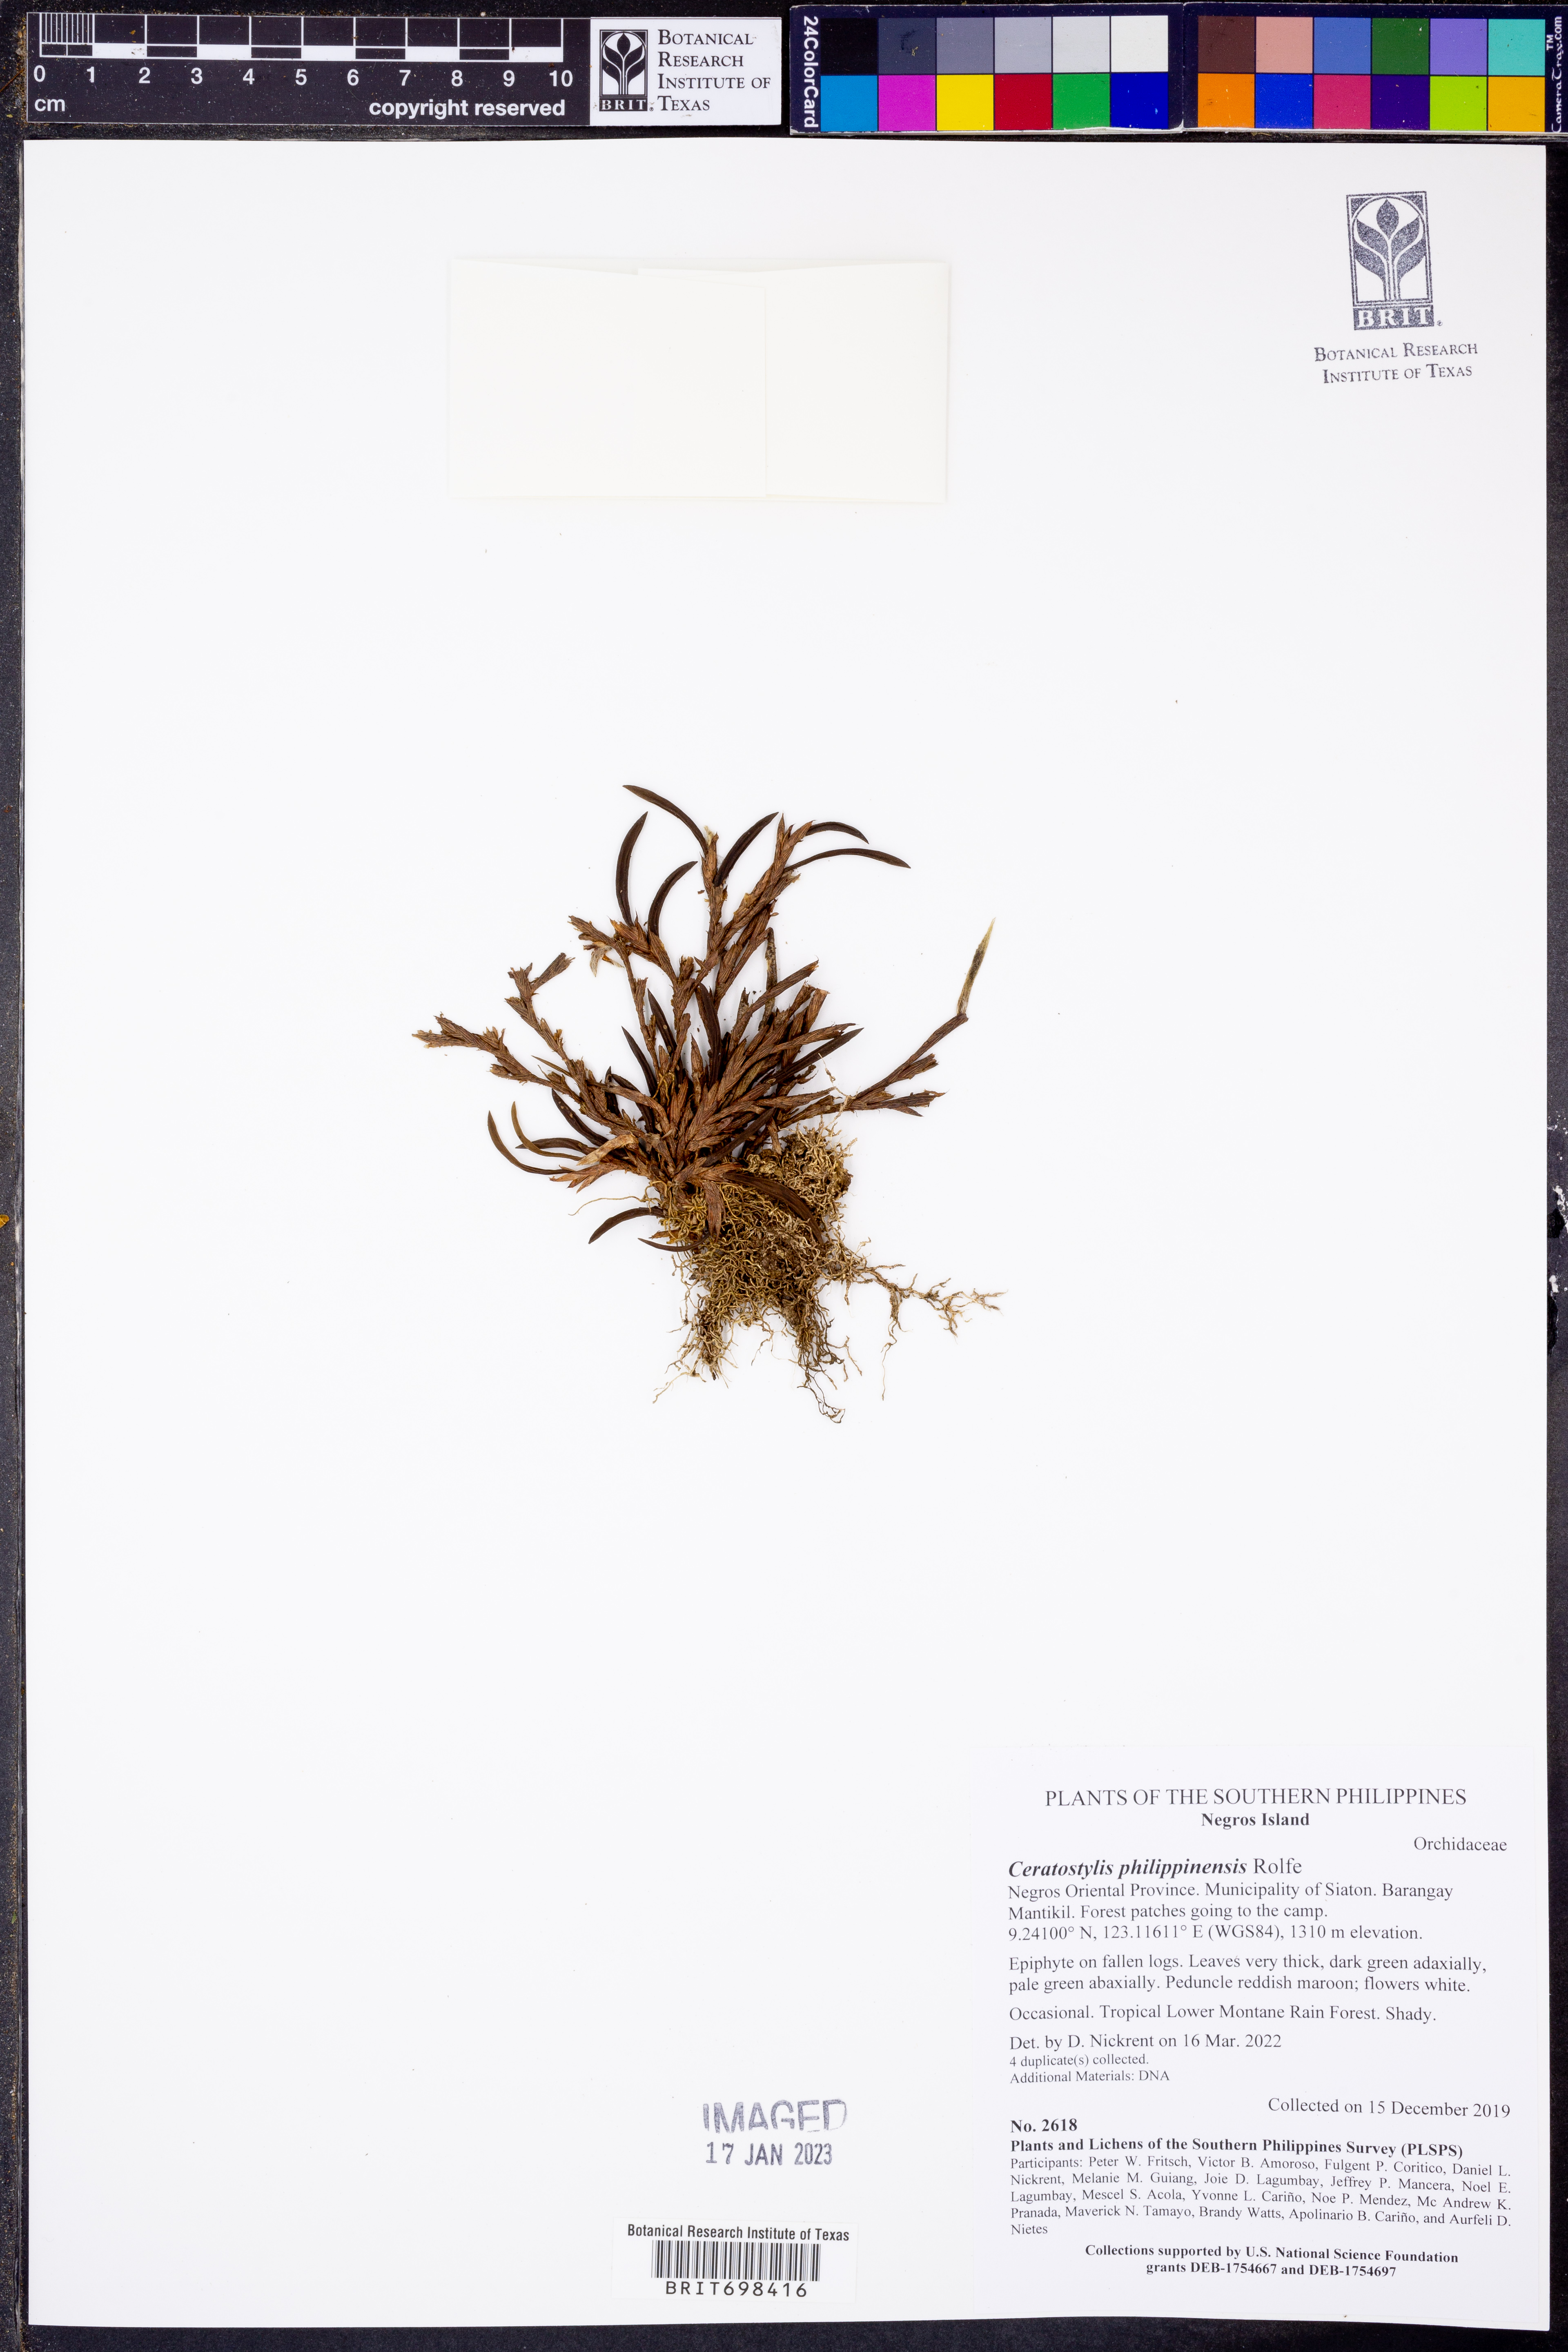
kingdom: Plantae
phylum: Tracheophyta
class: Liliopsida
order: Asparagales
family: Orchidaceae
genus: Ceratostylis
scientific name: Ceratostylis philippinensis
